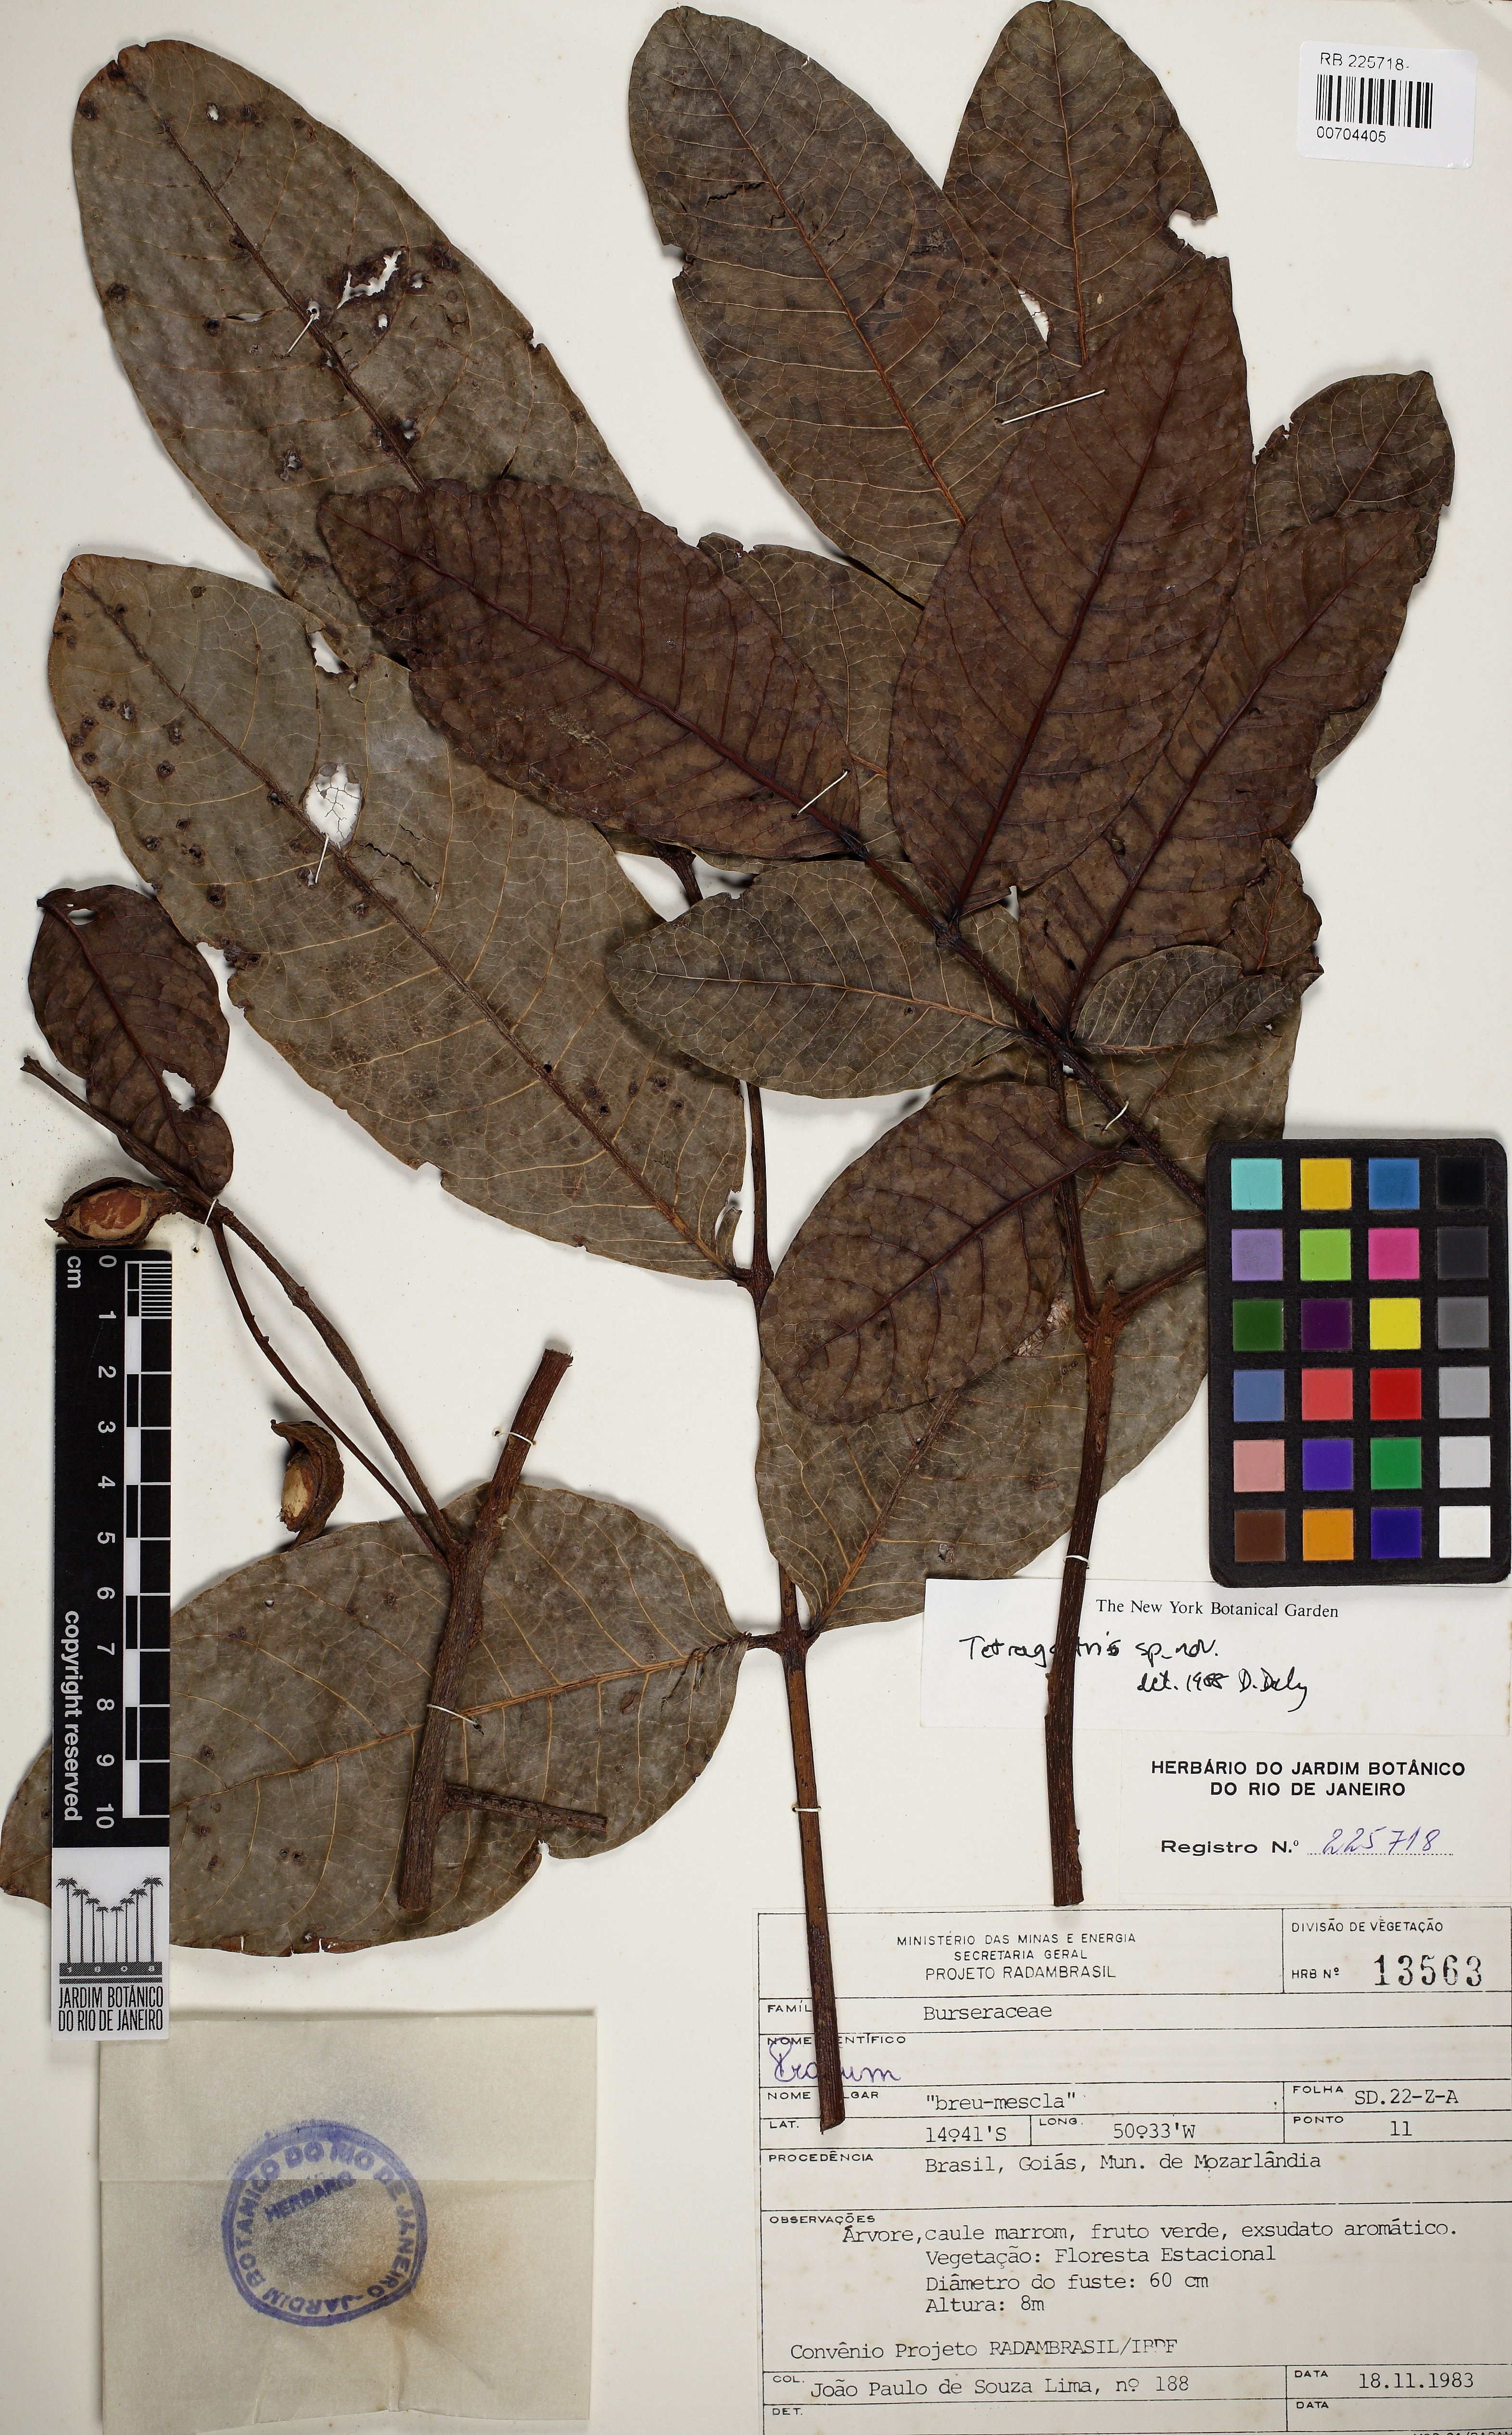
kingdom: Plantae
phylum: Tracheophyta
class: Magnoliopsida
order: Sapindales
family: Burseraceae
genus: Protium
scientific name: Protium cerradicola
